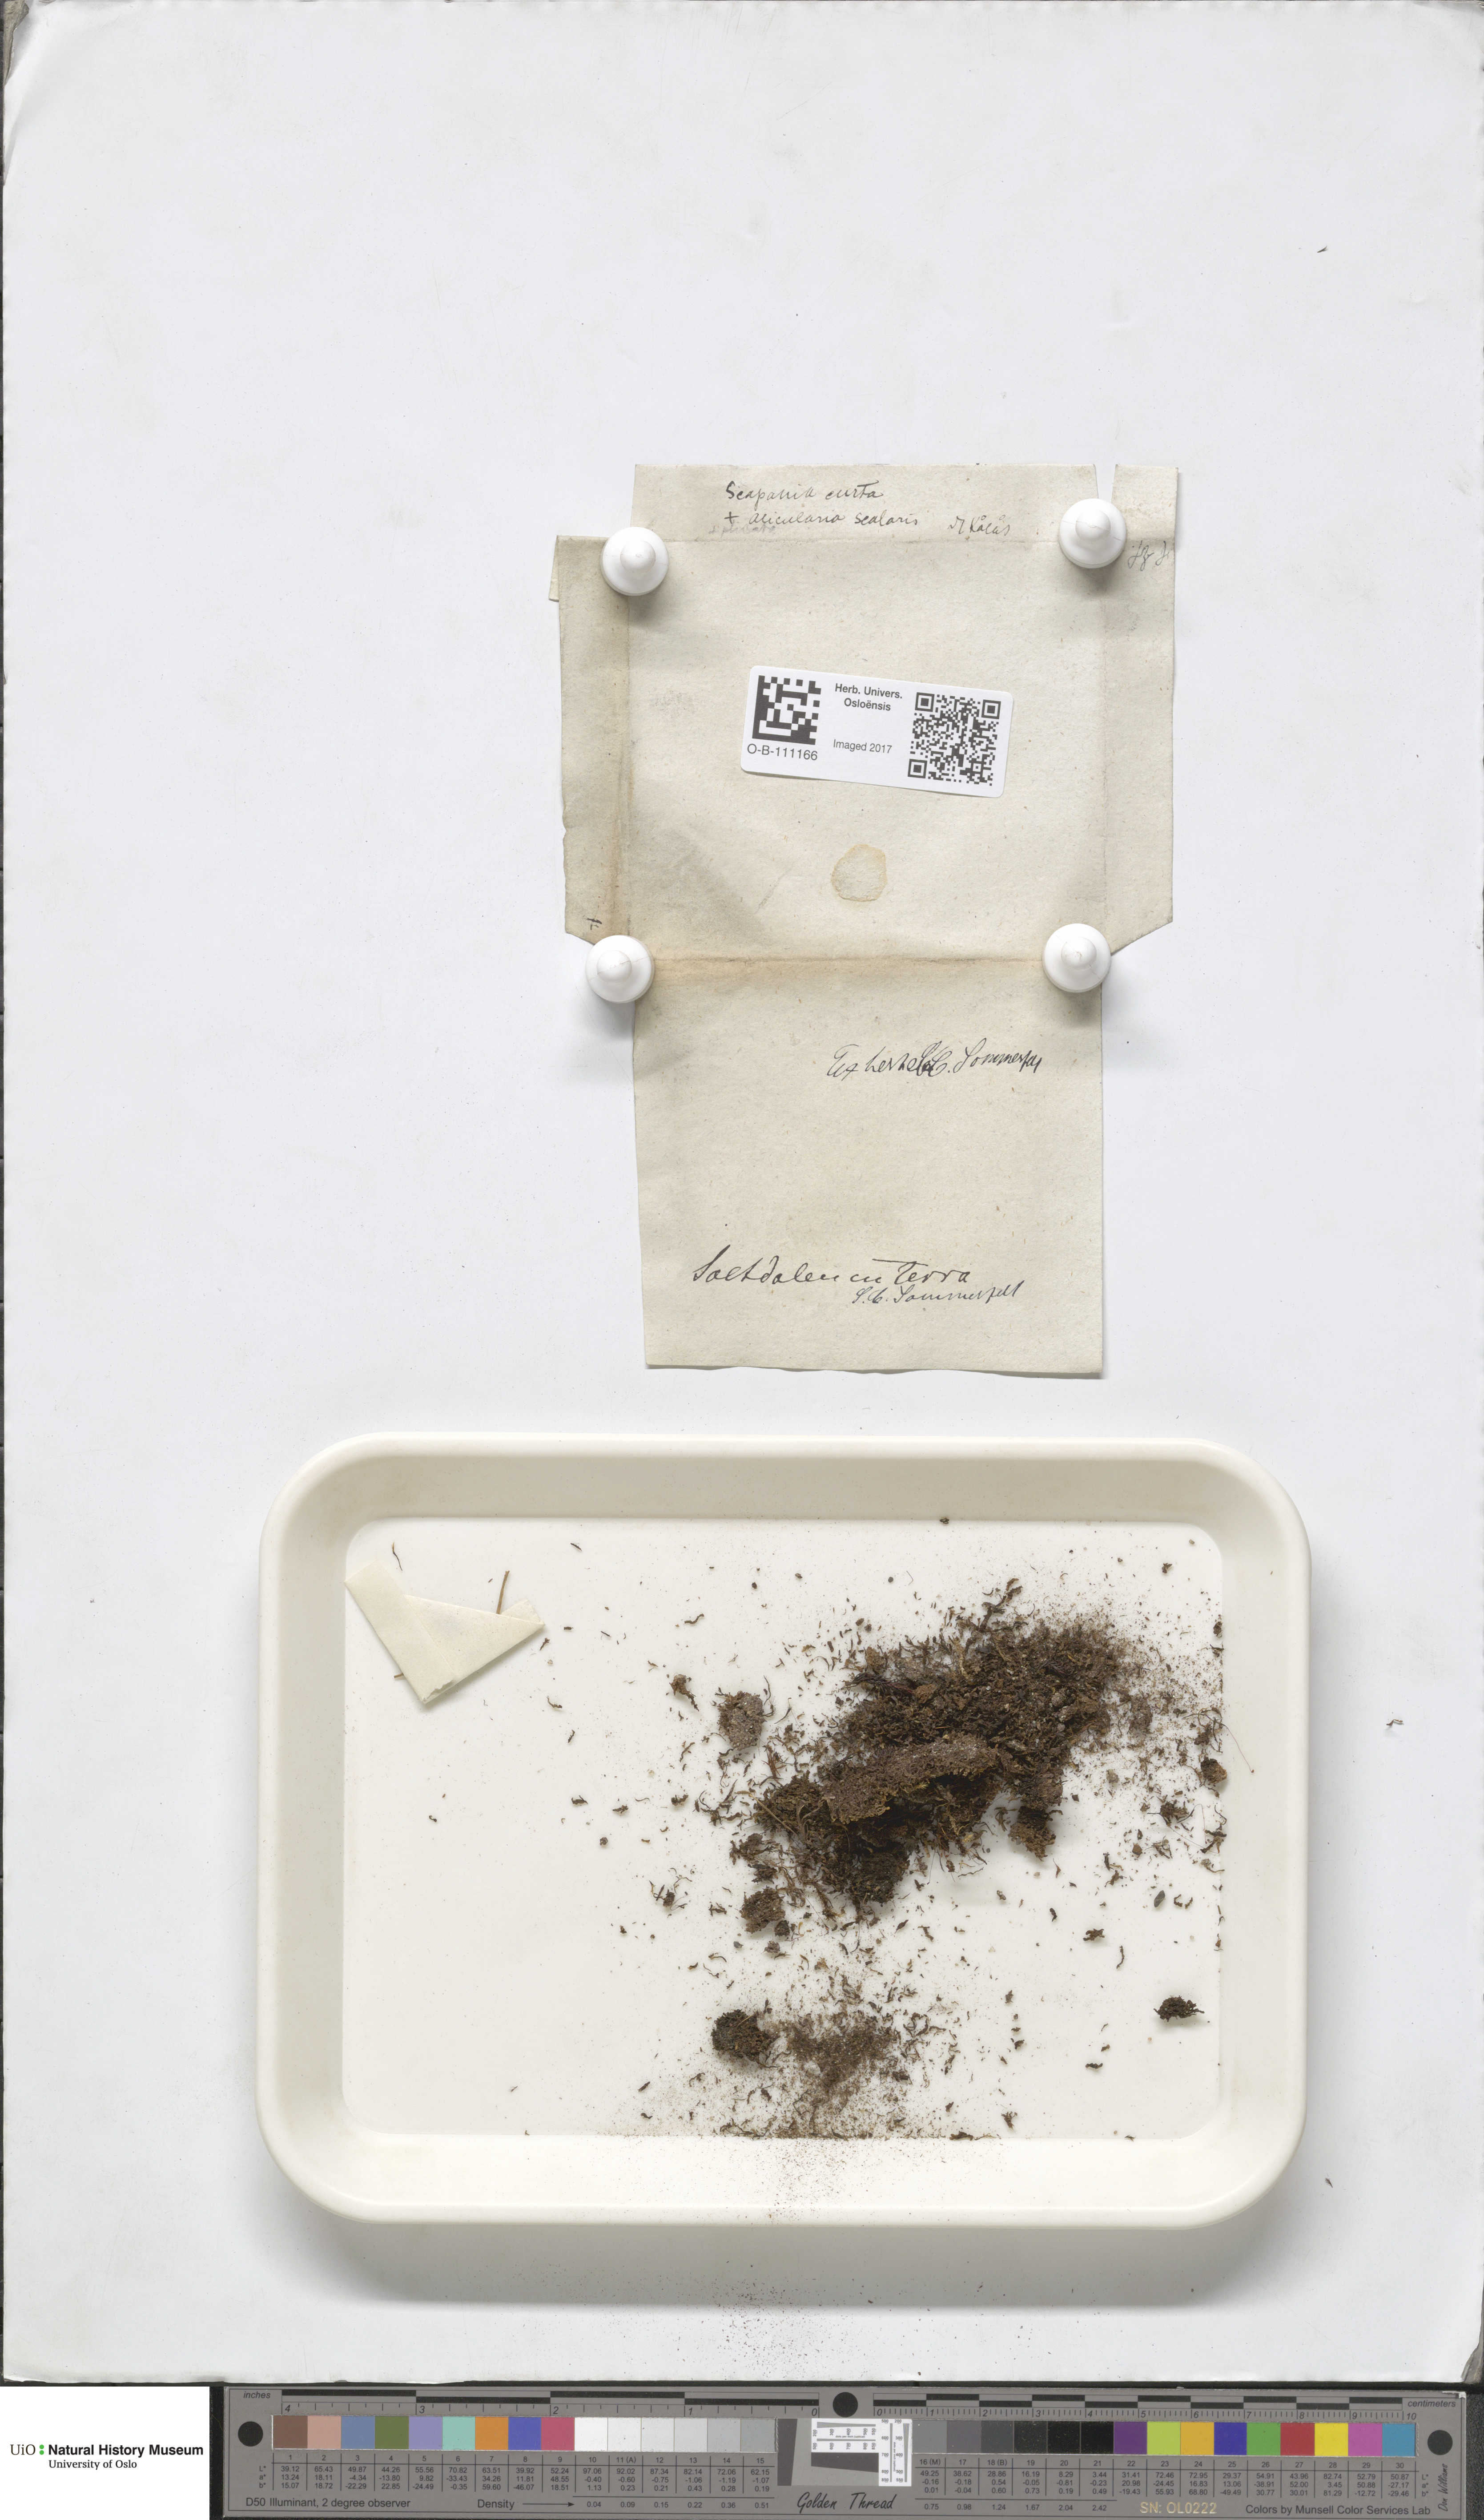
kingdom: Plantae
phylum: Marchantiophyta
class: Jungermanniopsida
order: Jungermanniales
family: Scapaniaceae
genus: Scapania
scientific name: Scapania curta
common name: Least earwort
